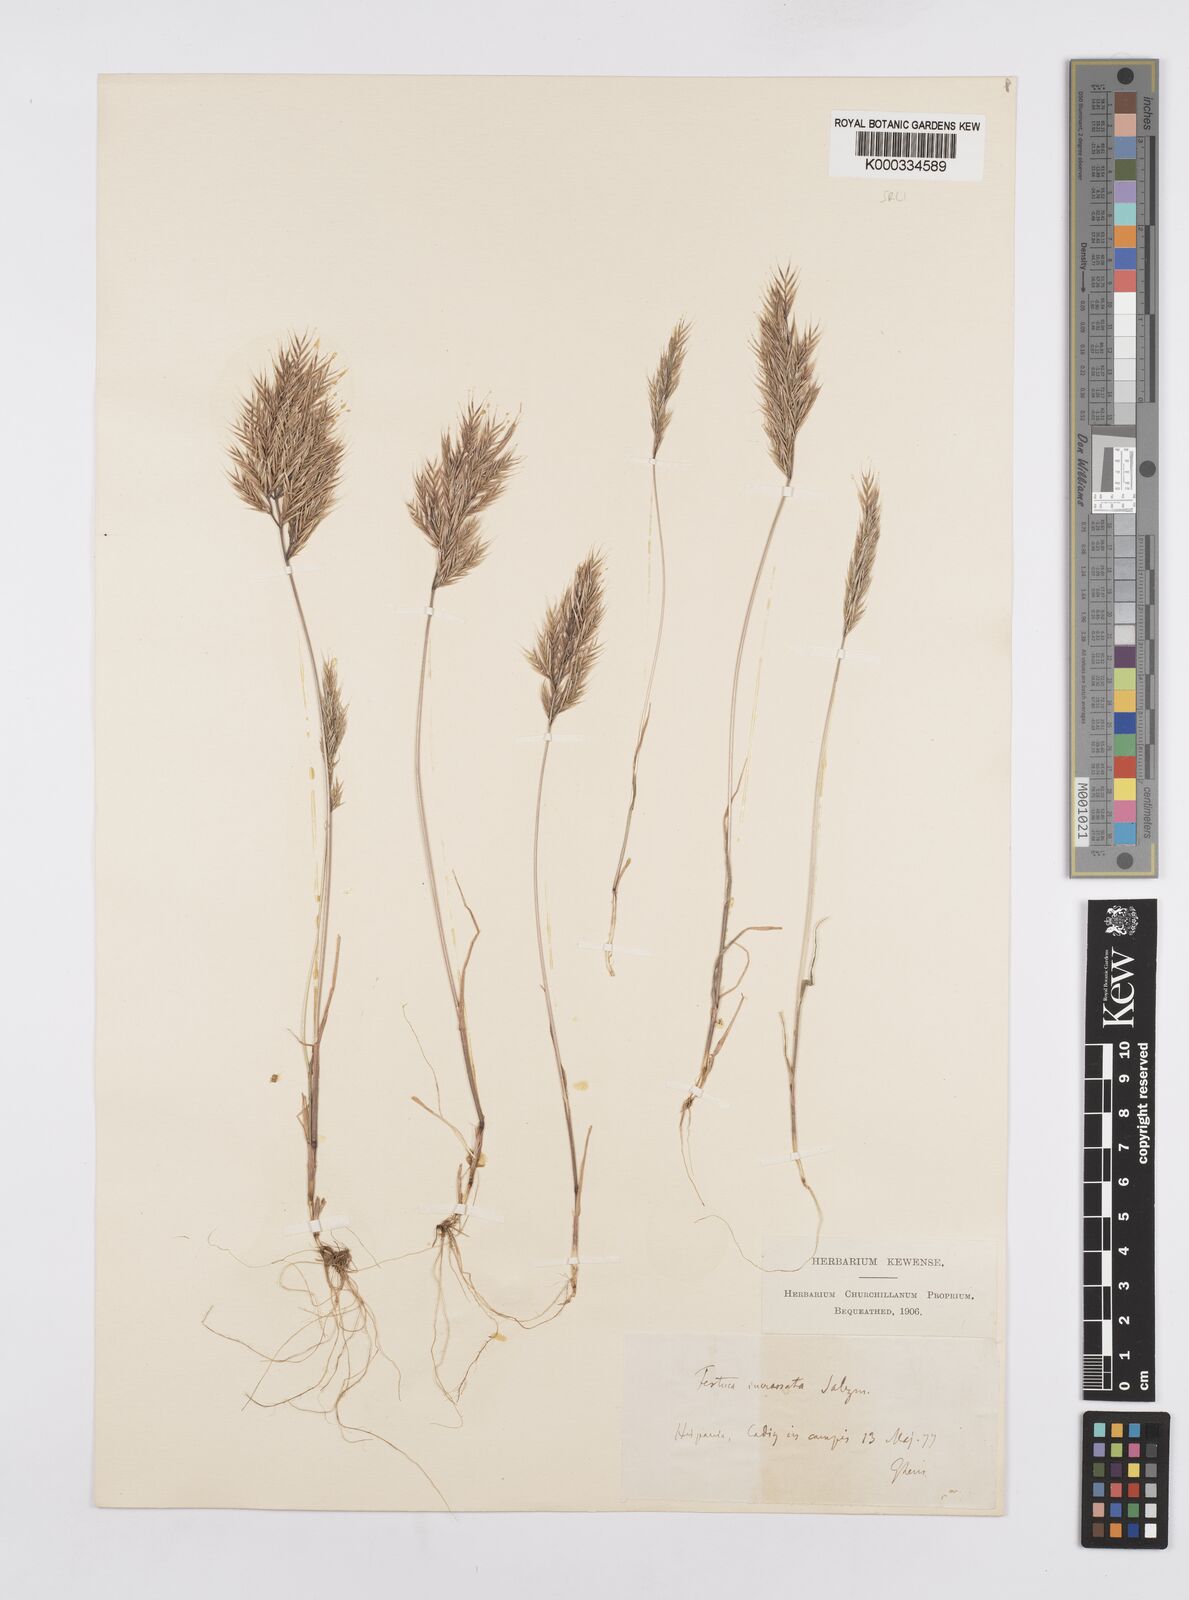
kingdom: Plantae
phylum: Tracheophyta
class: Liliopsida
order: Poales
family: Poaceae
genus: Vulpiella
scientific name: Vulpiella stipoides
